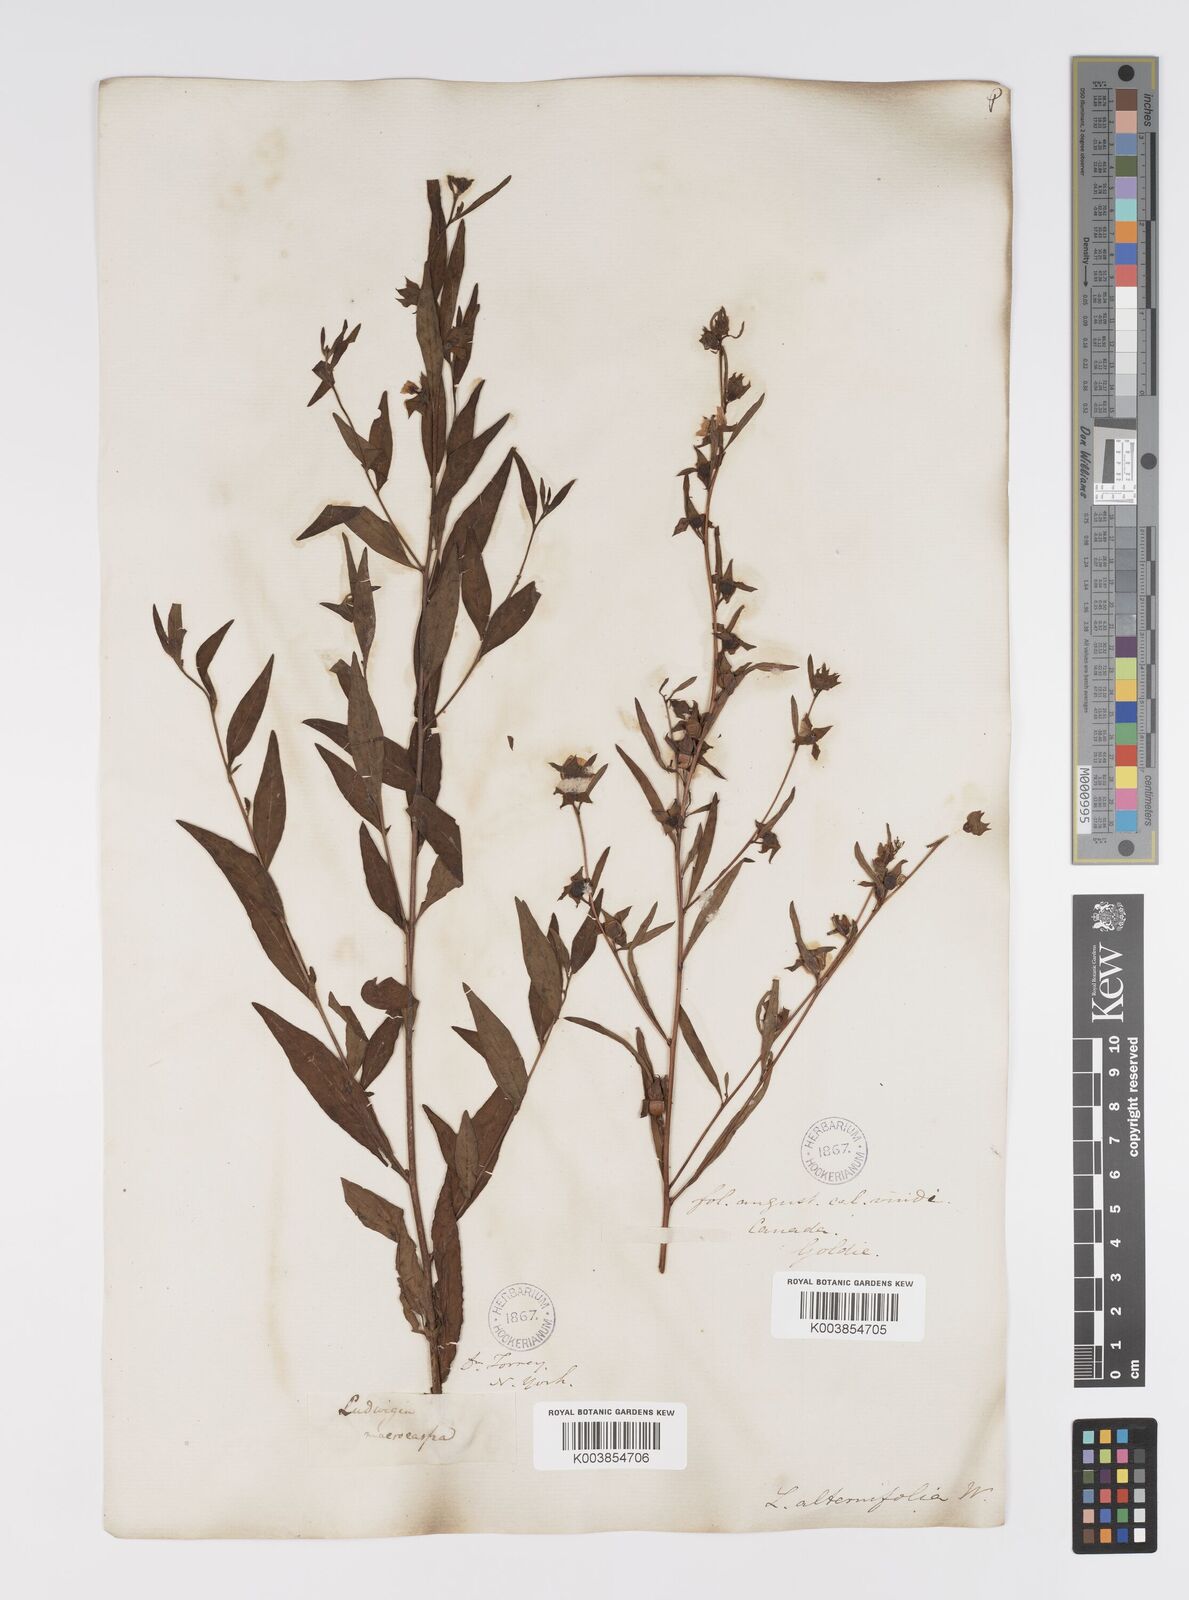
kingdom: Plantae
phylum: Tracheophyta
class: Magnoliopsida
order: Myrtales
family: Onagraceae
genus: Ludwigia
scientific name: Ludwigia alternifolia
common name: Rattlebox
